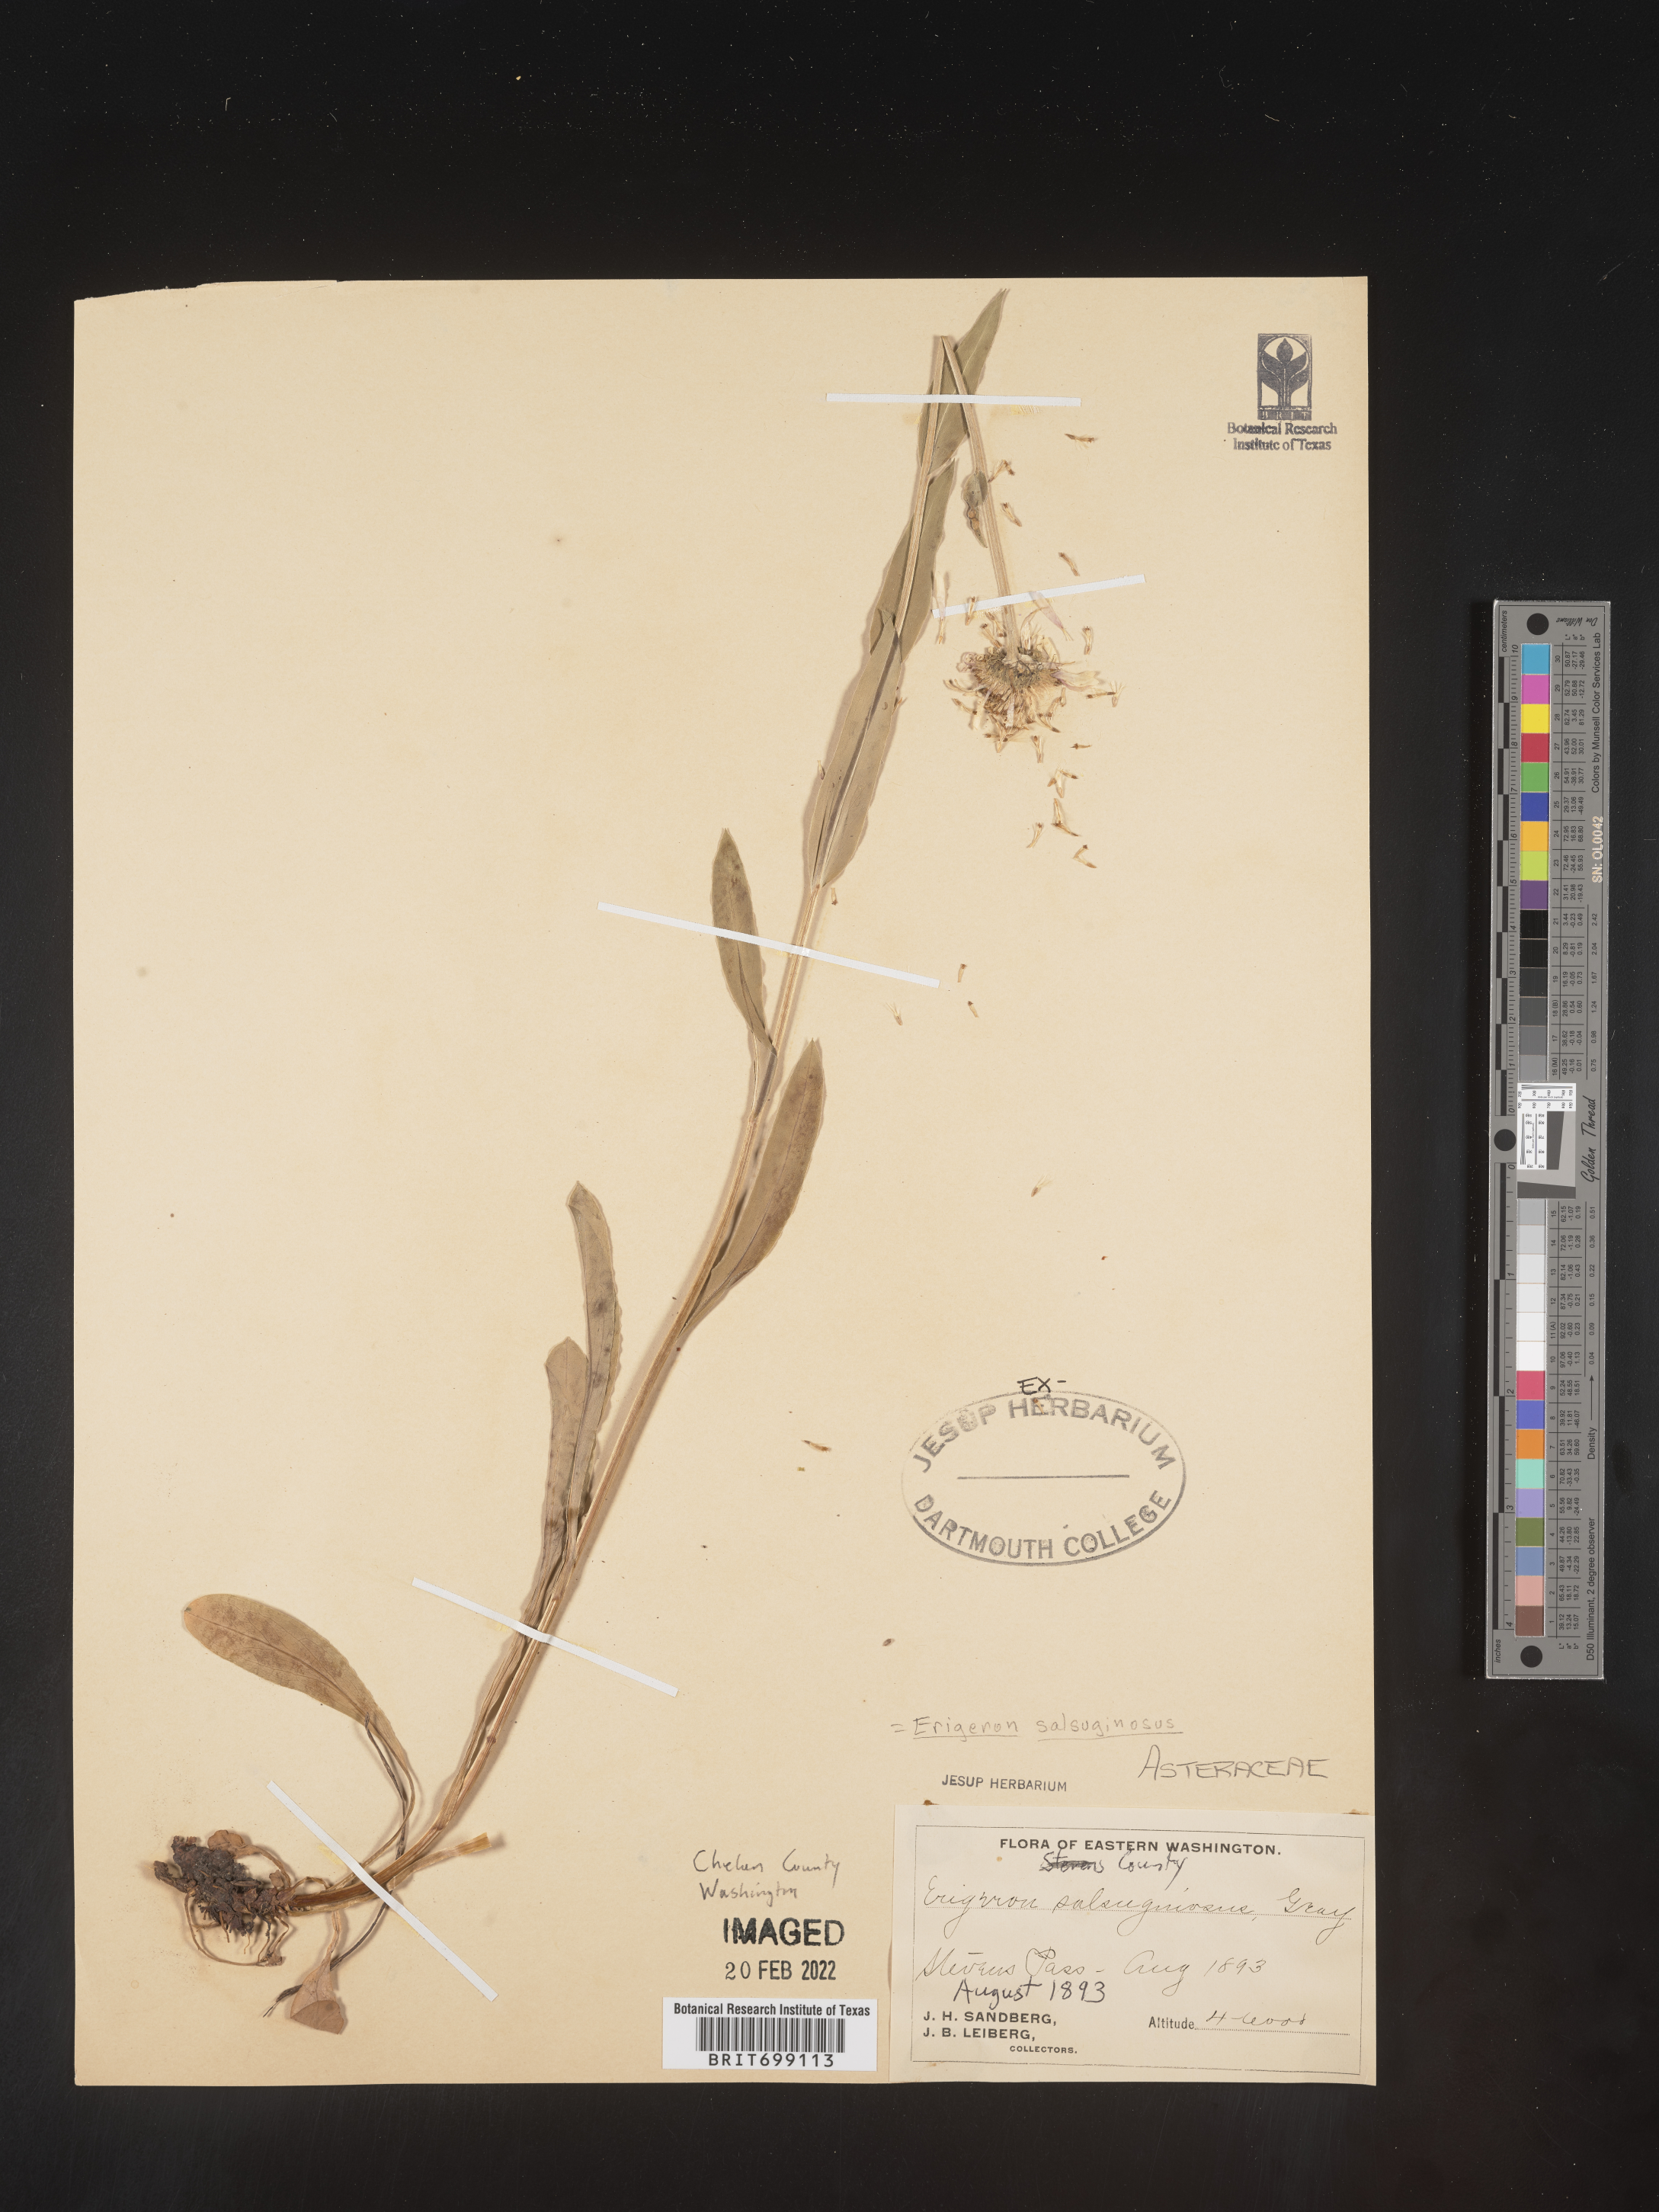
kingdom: Plantae
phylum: Tracheophyta
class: Magnoliopsida
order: Asterales
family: Asteraceae
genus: Erigeron
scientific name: Erigeron salmonensis
